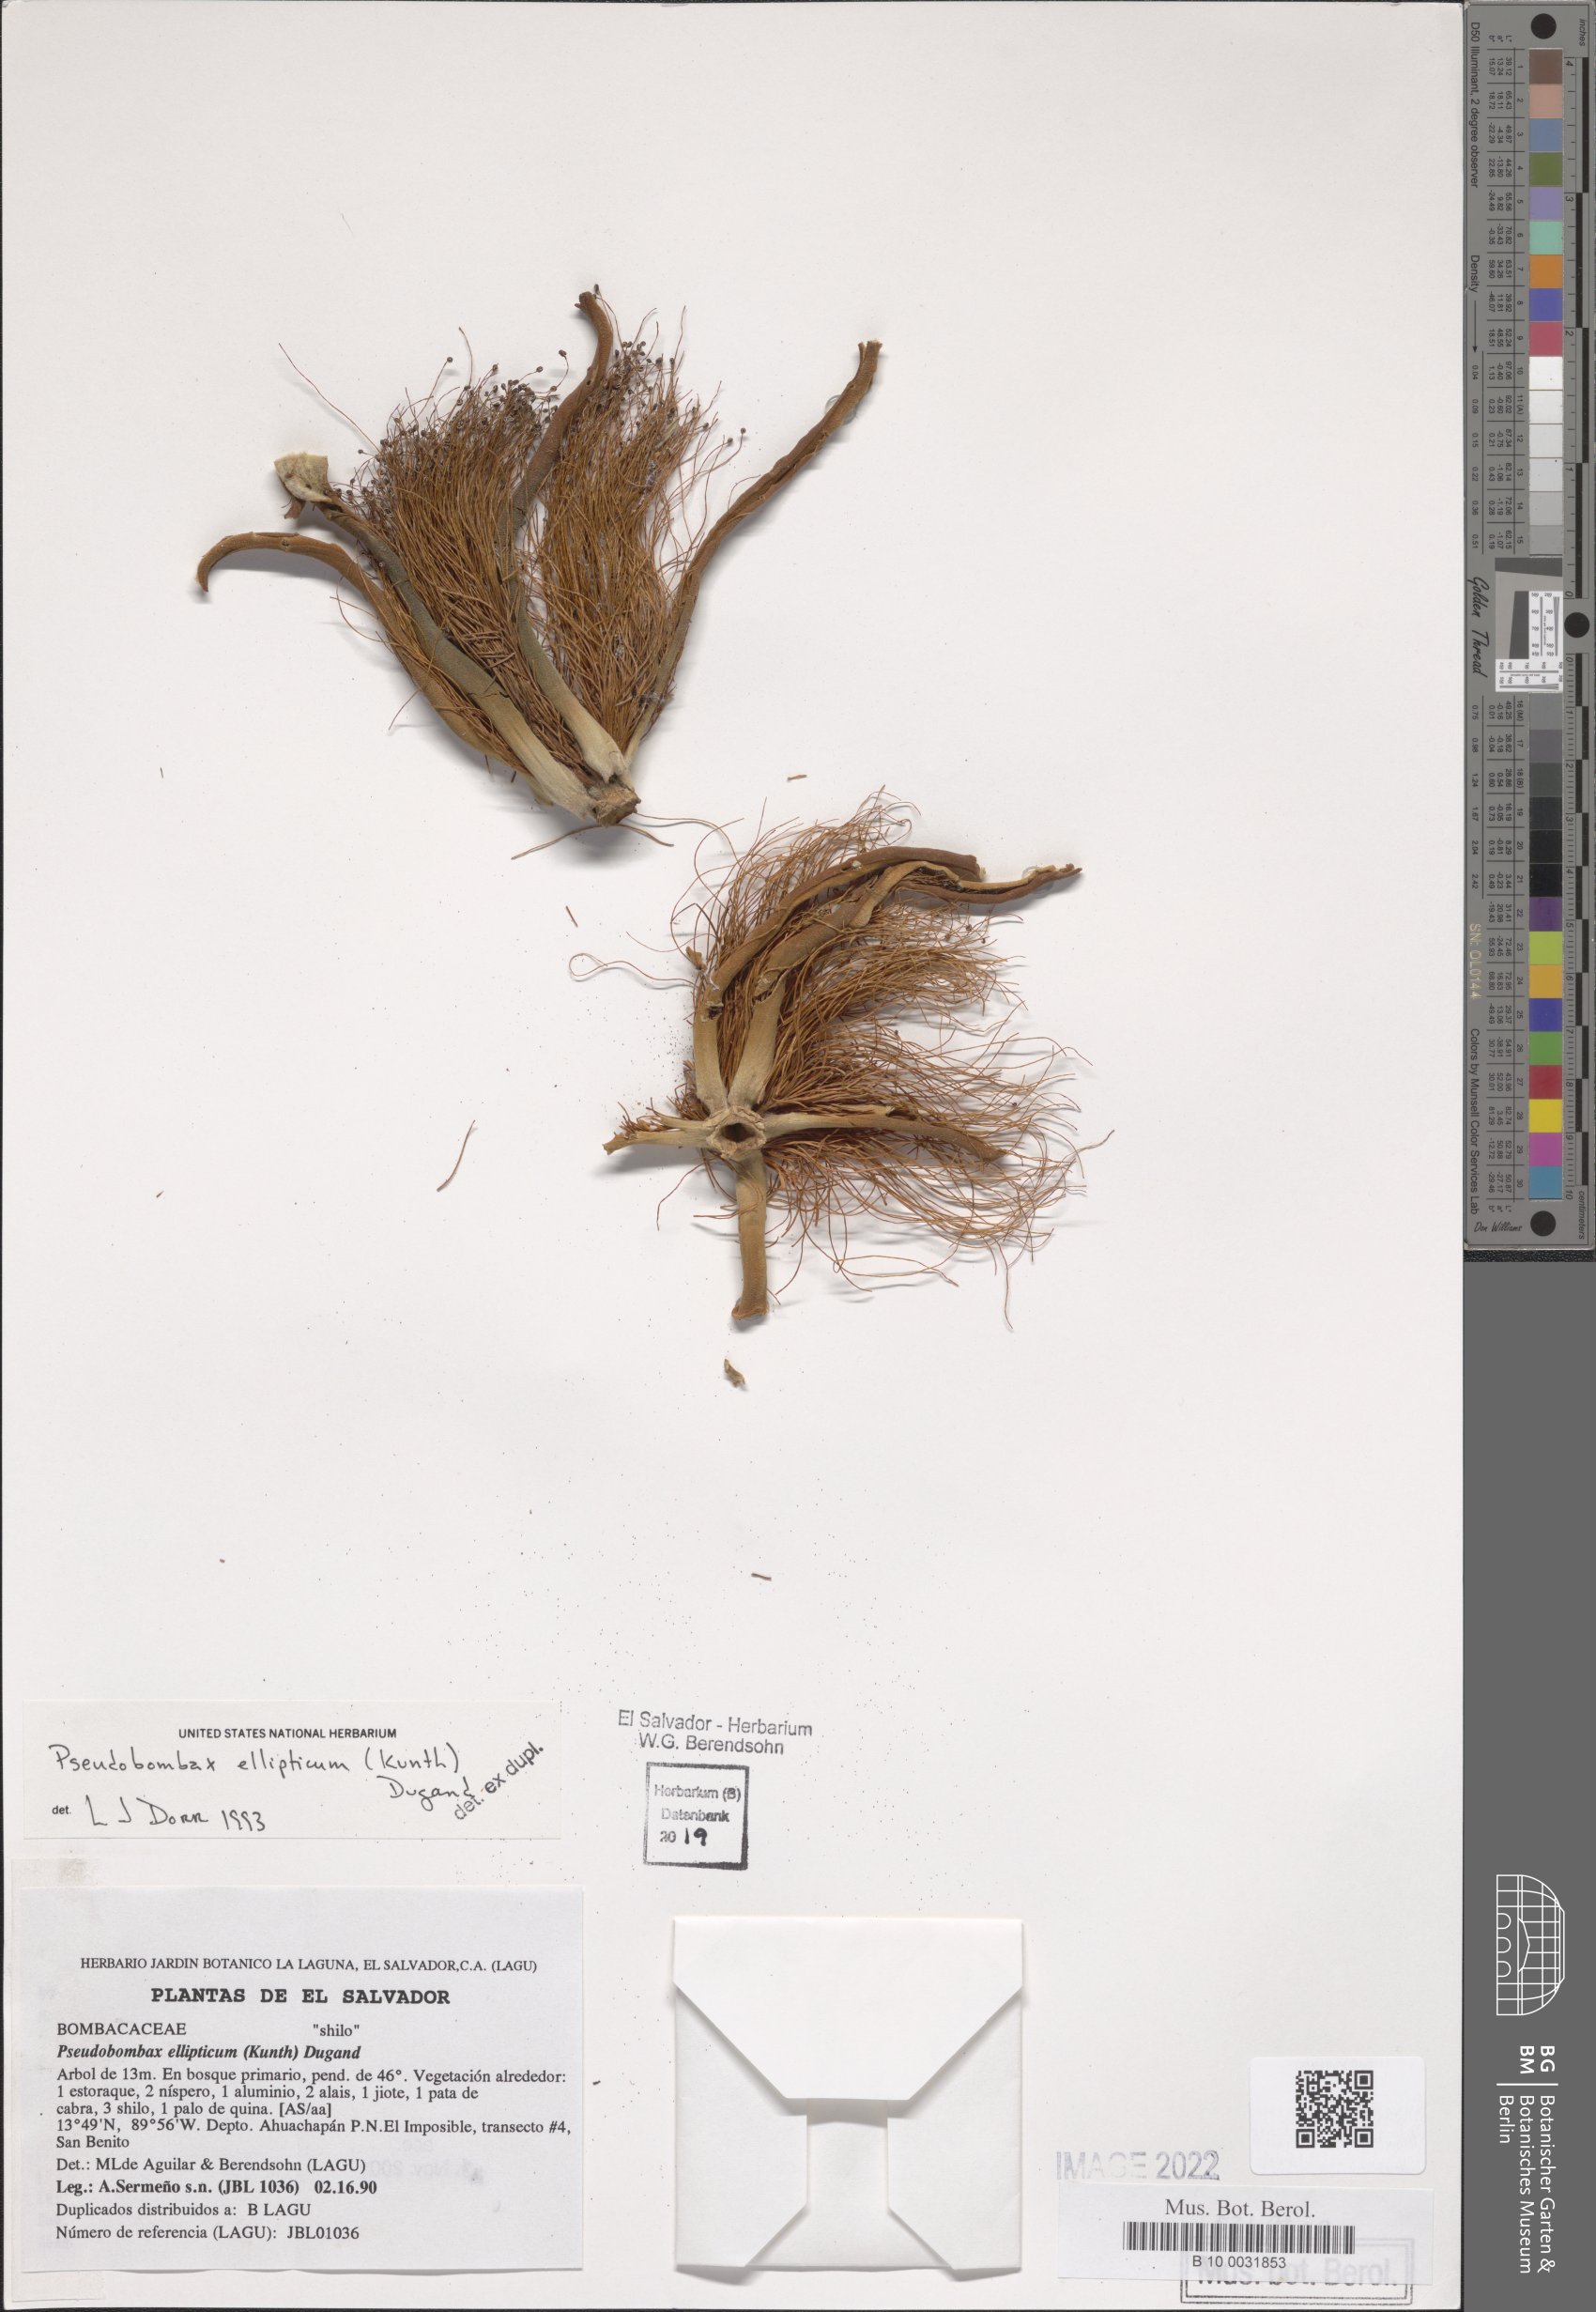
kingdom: Plantae
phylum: Tracheophyta
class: Magnoliopsida
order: Malvales
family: Malvaceae
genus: Pseudobombax
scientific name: Pseudobombax ellipticum
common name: Shaving-brush-tree
